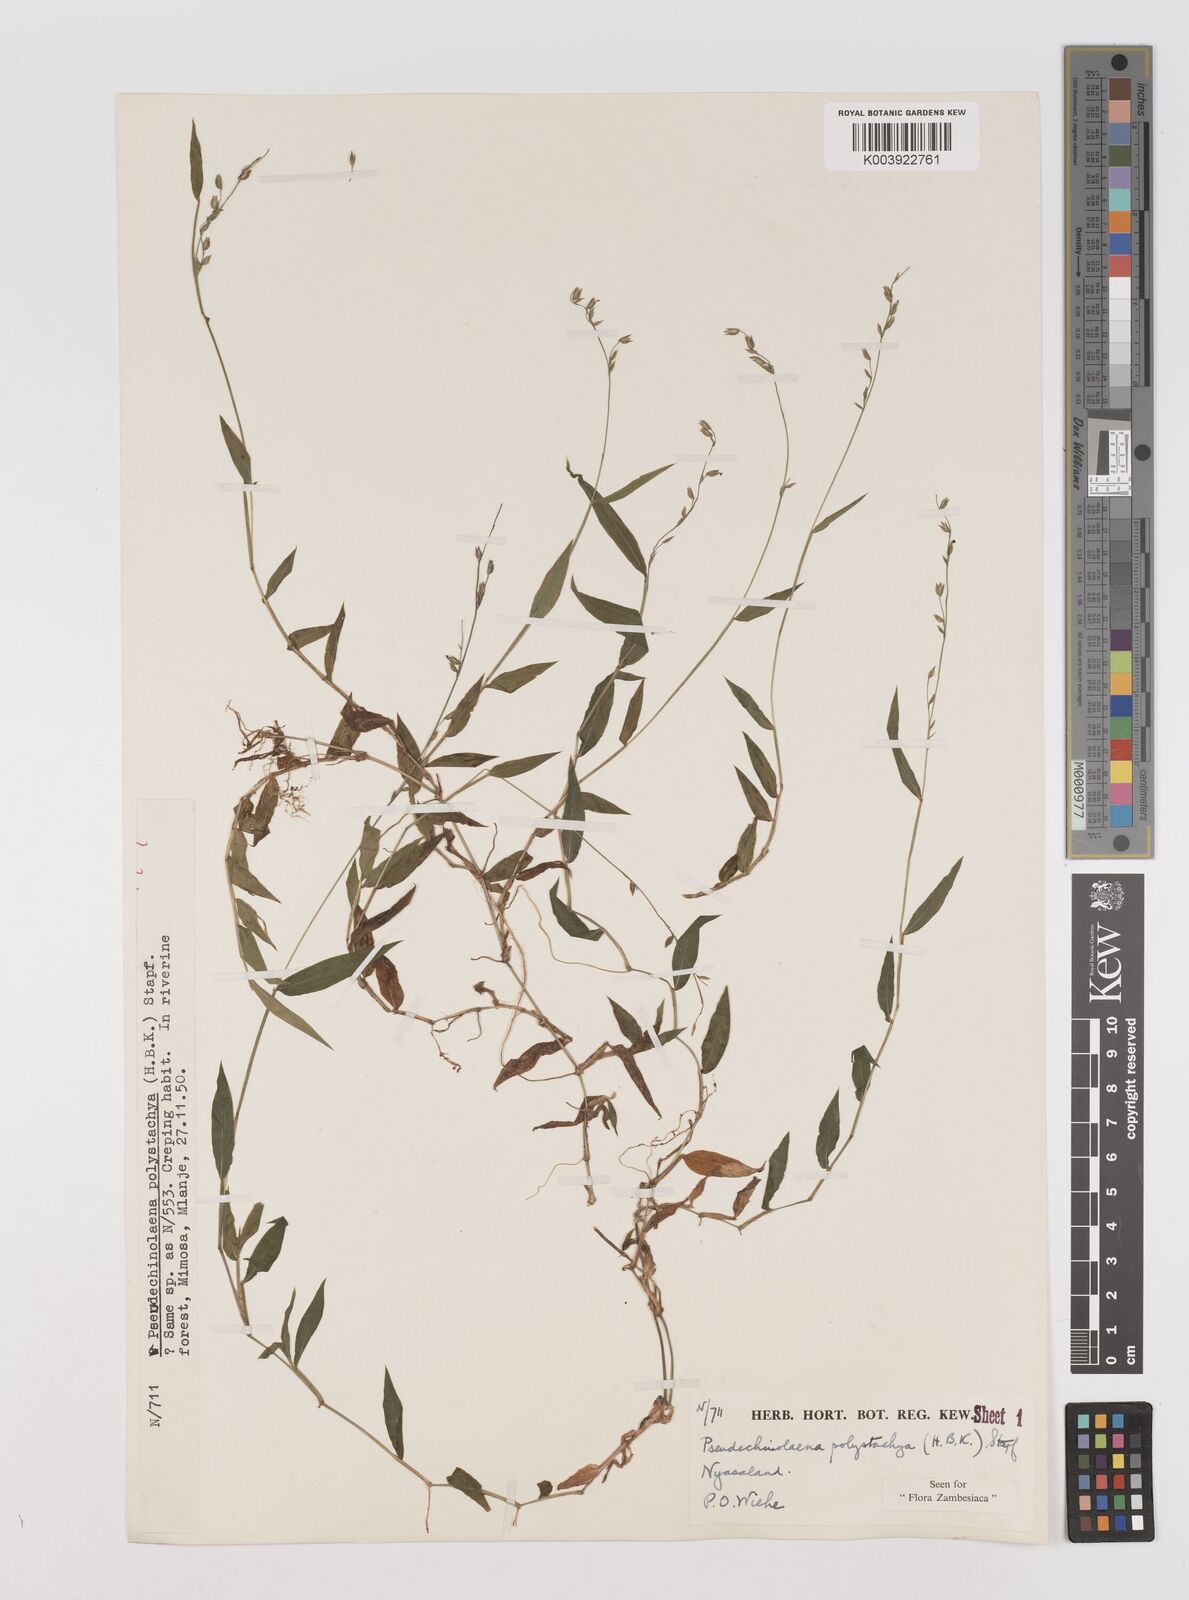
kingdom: Plantae
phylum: Tracheophyta
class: Liliopsida
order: Poales
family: Poaceae
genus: Pseudechinolaena
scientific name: Pseudechinolaena polystachya
